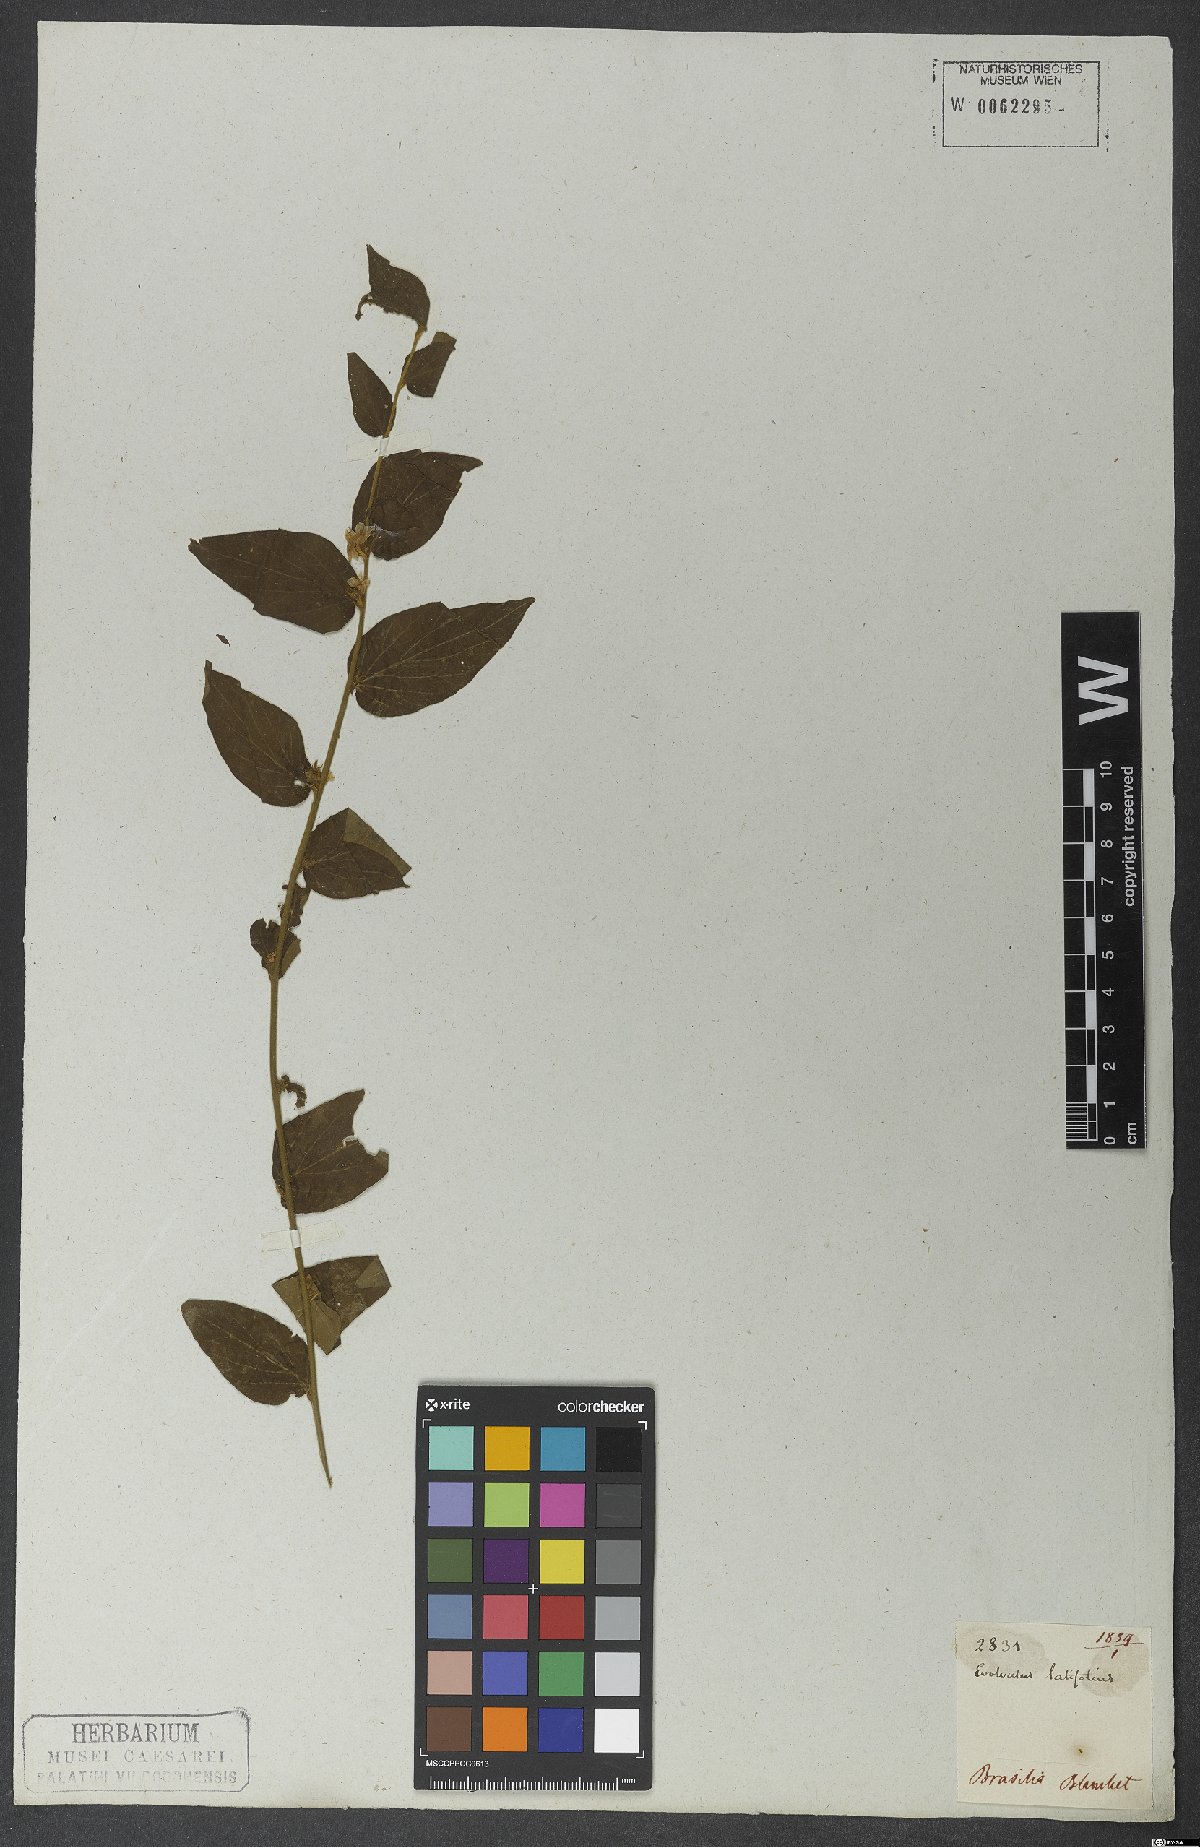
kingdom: Plantae
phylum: Tracheophyta
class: Magnoliopsida
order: Solanales
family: Convolvulaceae
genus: Evolvulus
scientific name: Evolvulus latifolius
